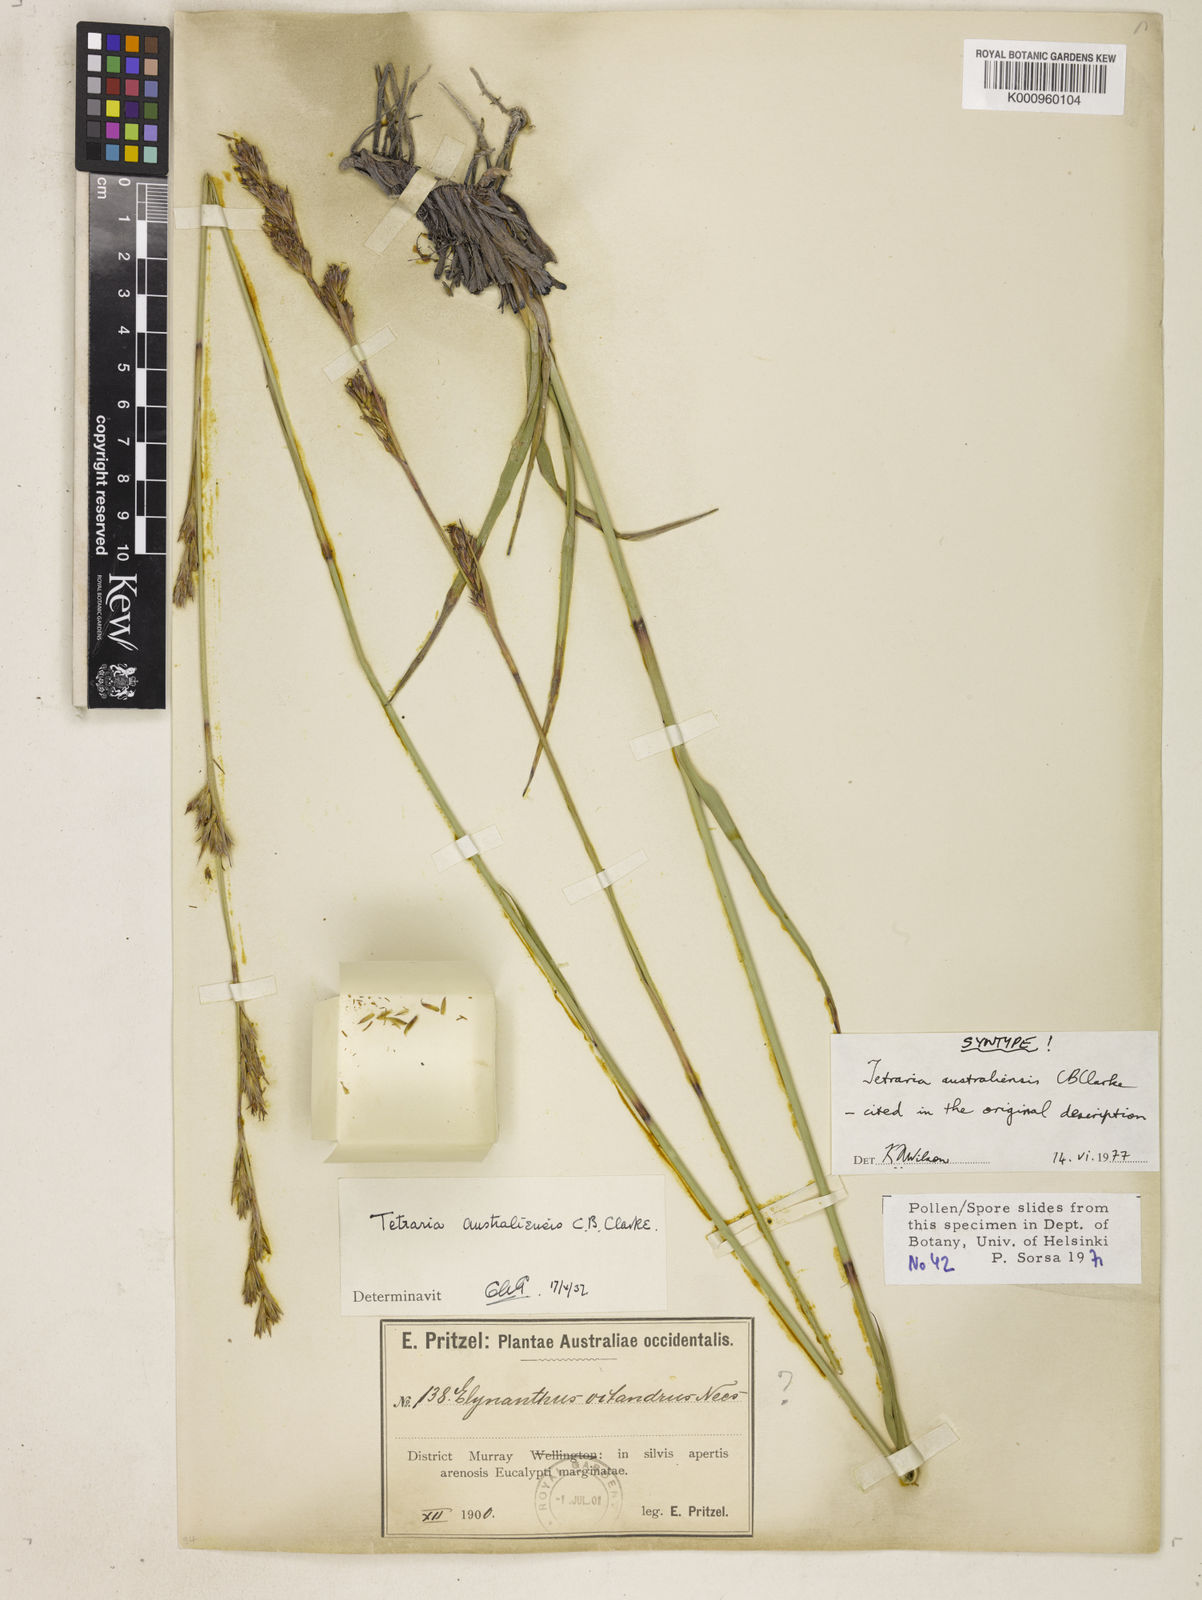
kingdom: Plantae
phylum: Tracheophyta
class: Liliopsida
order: Poales
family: Cyperaceae
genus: Tetraria
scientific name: Tetraria australiensis
